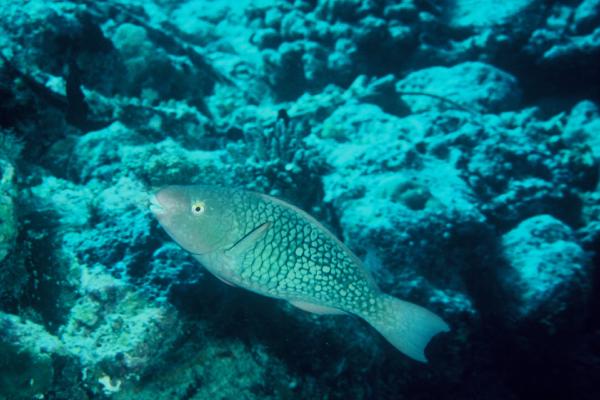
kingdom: Animalia
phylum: Chordata
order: Perciformes
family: Scaridae
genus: Scarus
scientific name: Scarus rubroviolaceus
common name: Ember parrotfish
